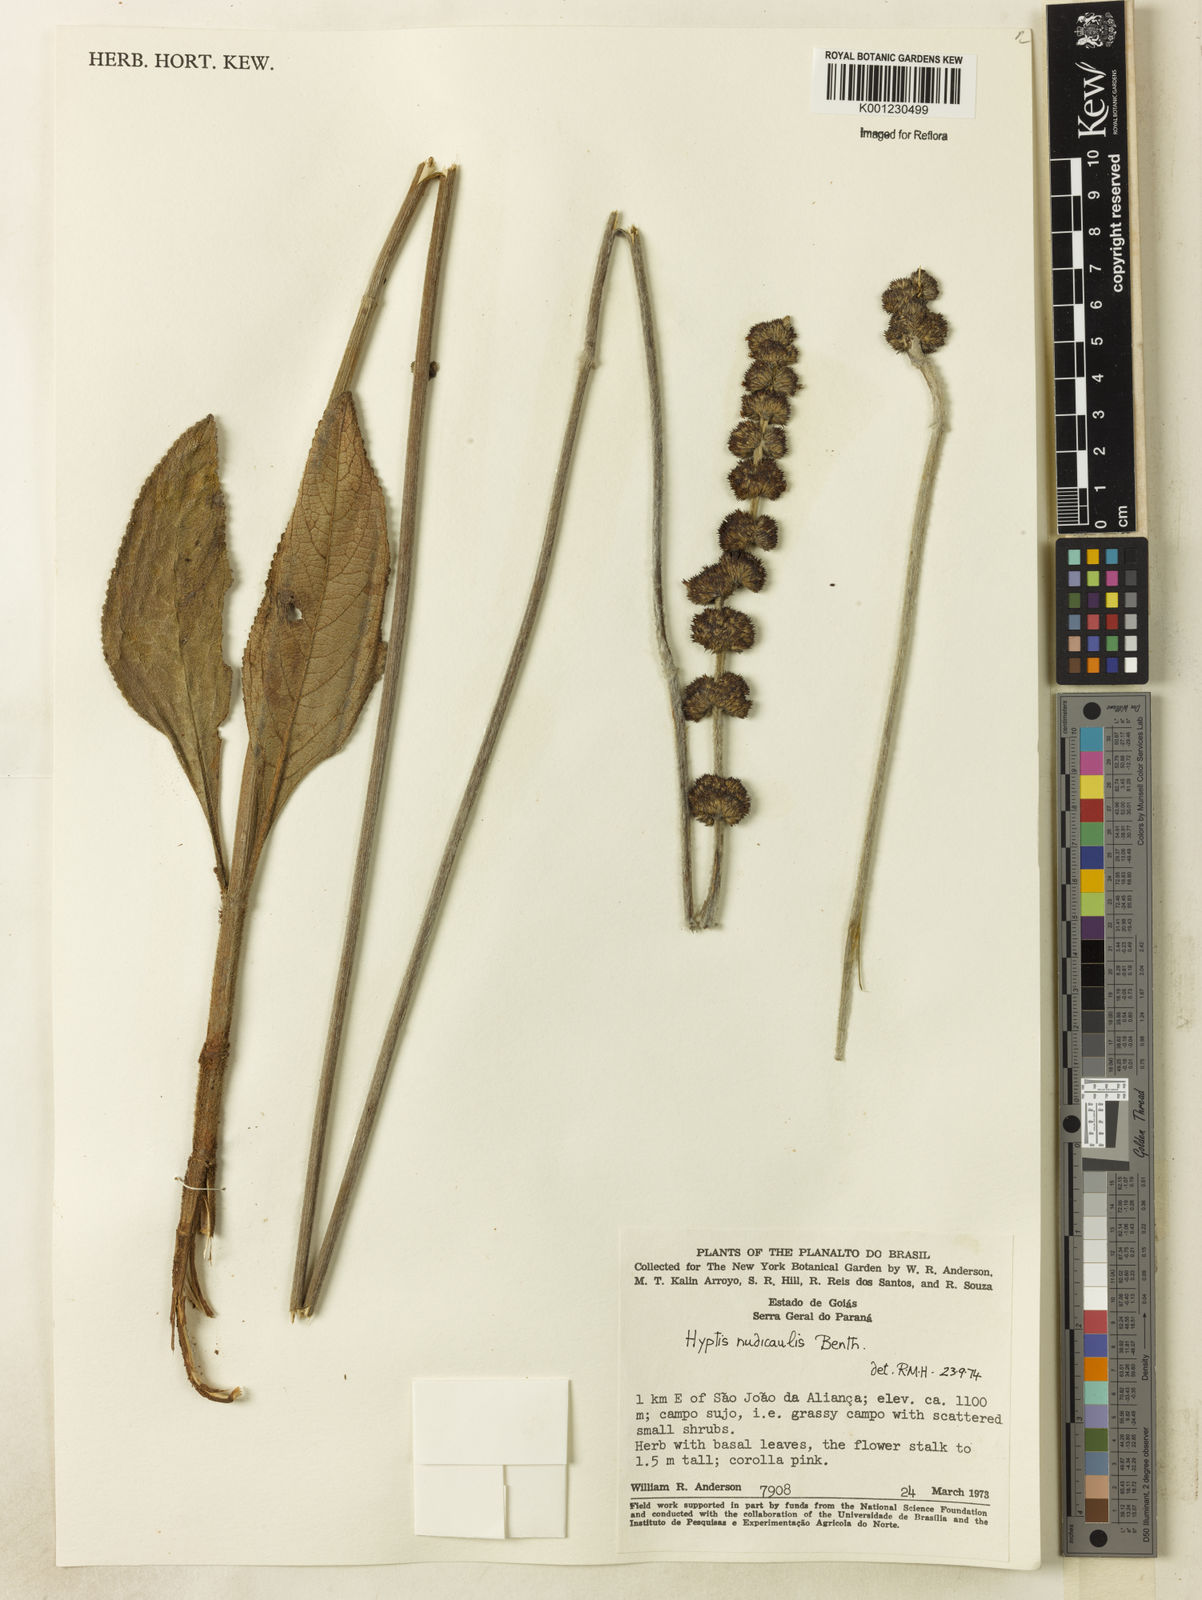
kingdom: Plantae
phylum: Tracheophyta
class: Magnoliopsida
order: Lamiales
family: Lamiaceae
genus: Hyptis
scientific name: Hyptis nudicaulis
